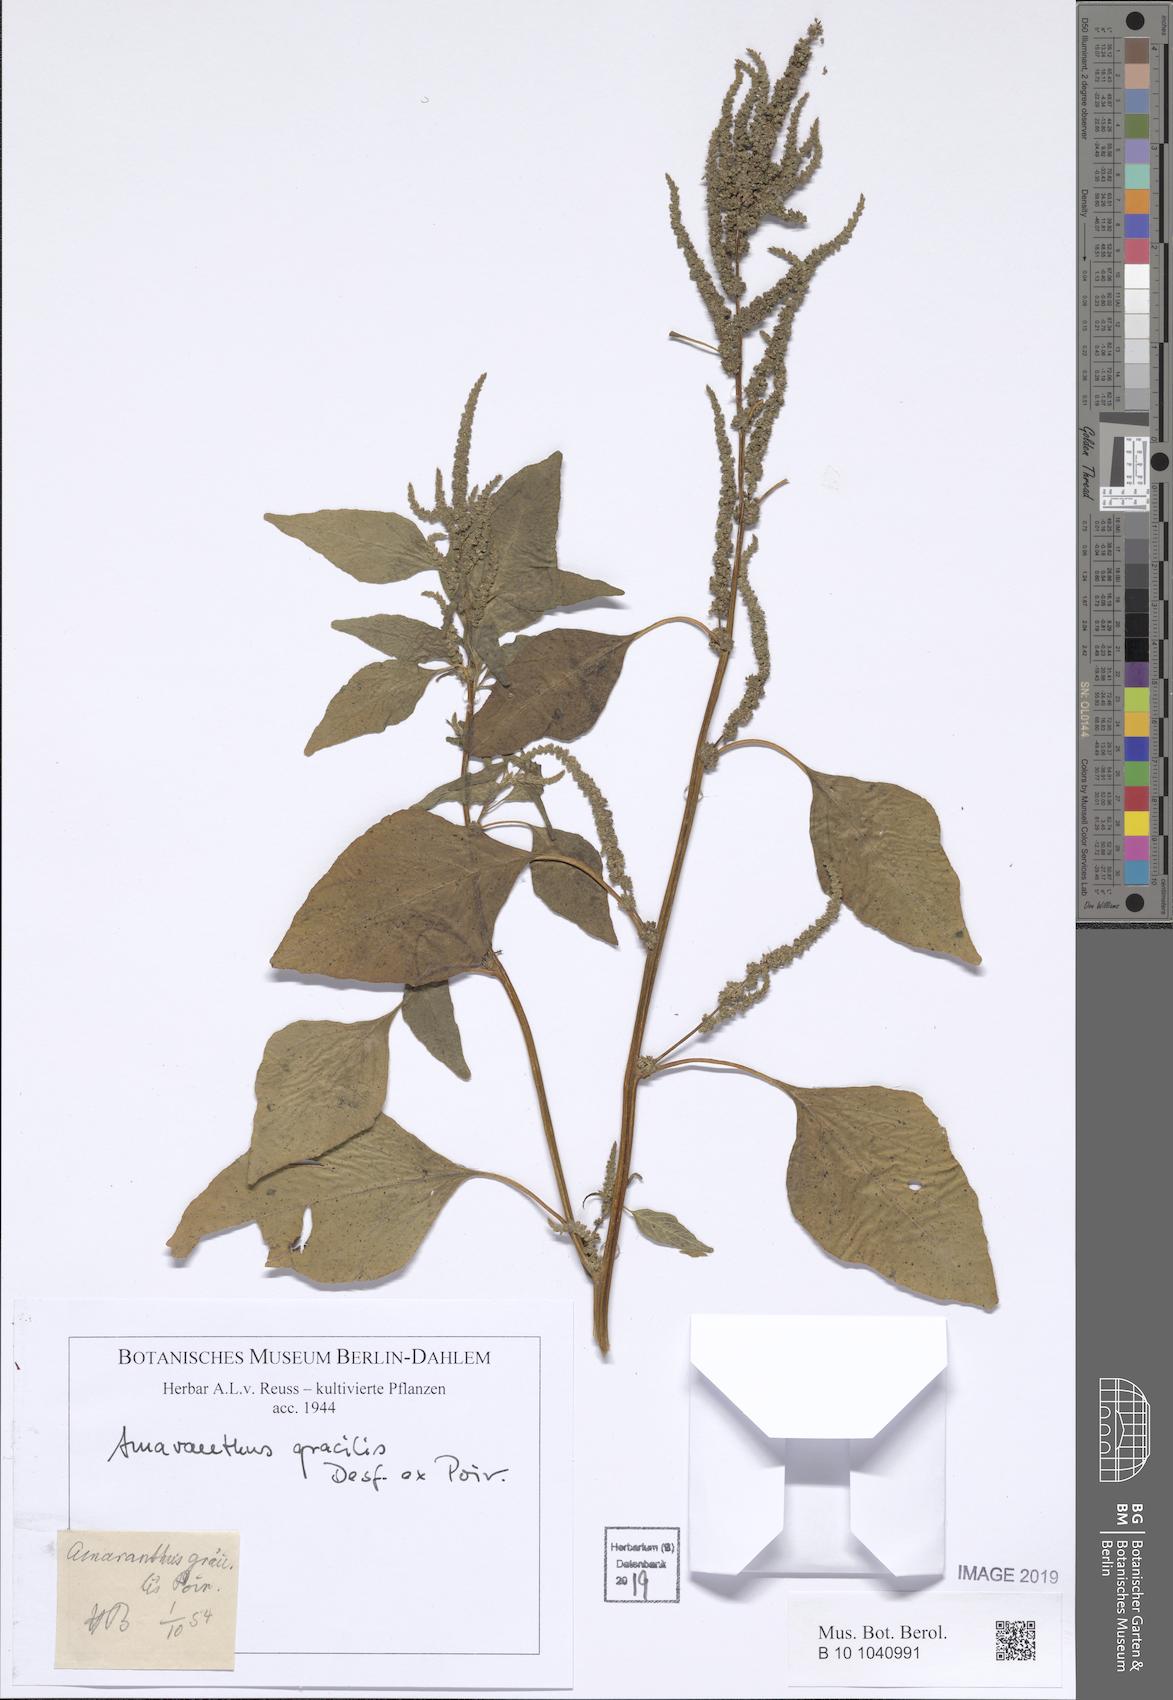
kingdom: Plantae
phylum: Tracheophyta
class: Magnoliopsida
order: Caryophyllales
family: Amaranthaceae
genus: Amaranthus
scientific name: Amaranthus viridis
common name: Slender amaranth
